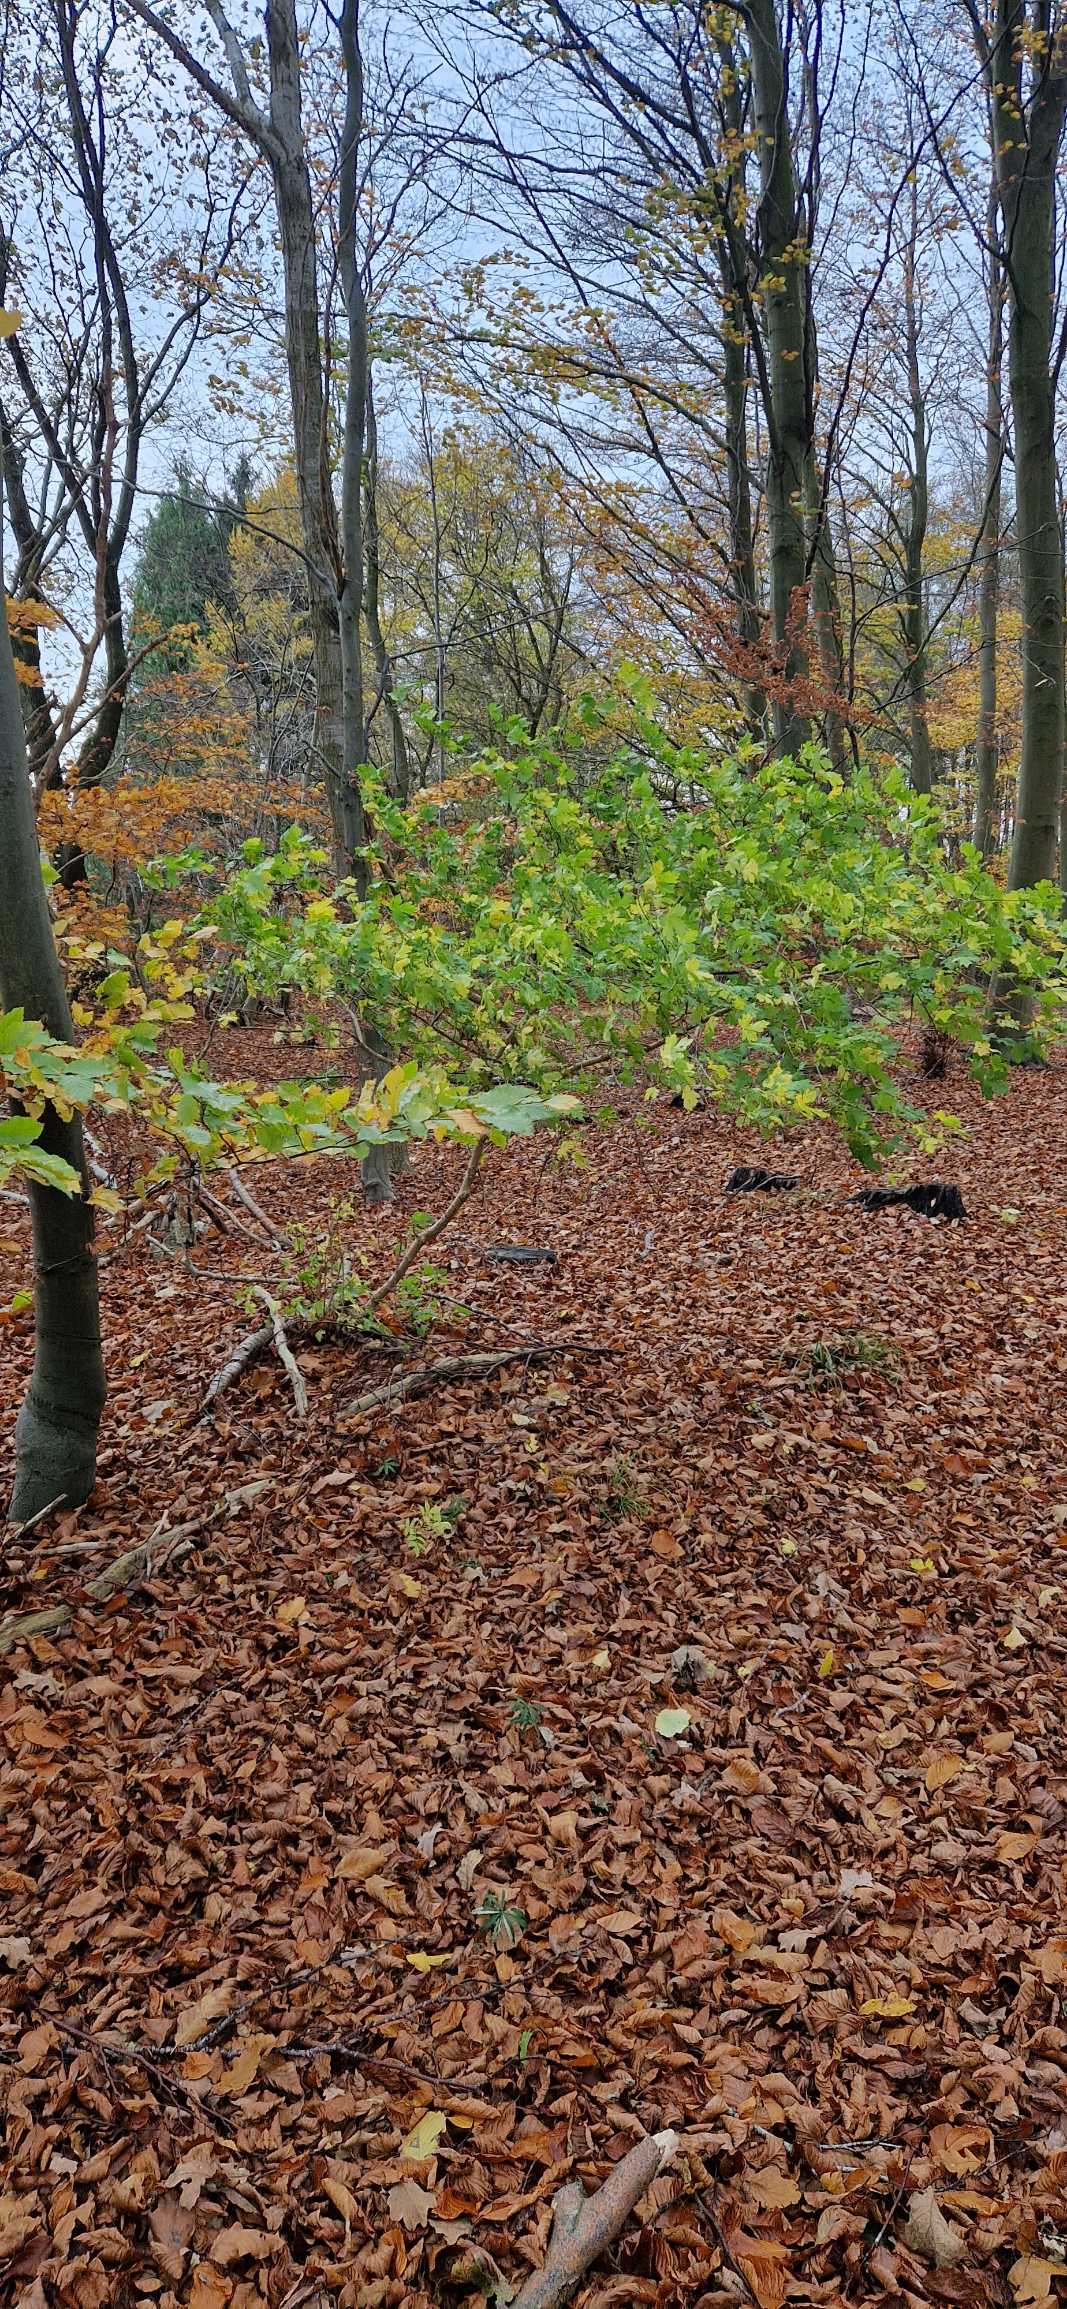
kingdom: Plantae
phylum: Tracheophyta
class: Magnoliopsida
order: Sapindales
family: Sapindaceae
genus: Acer
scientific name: Acer campestre
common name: Navr
